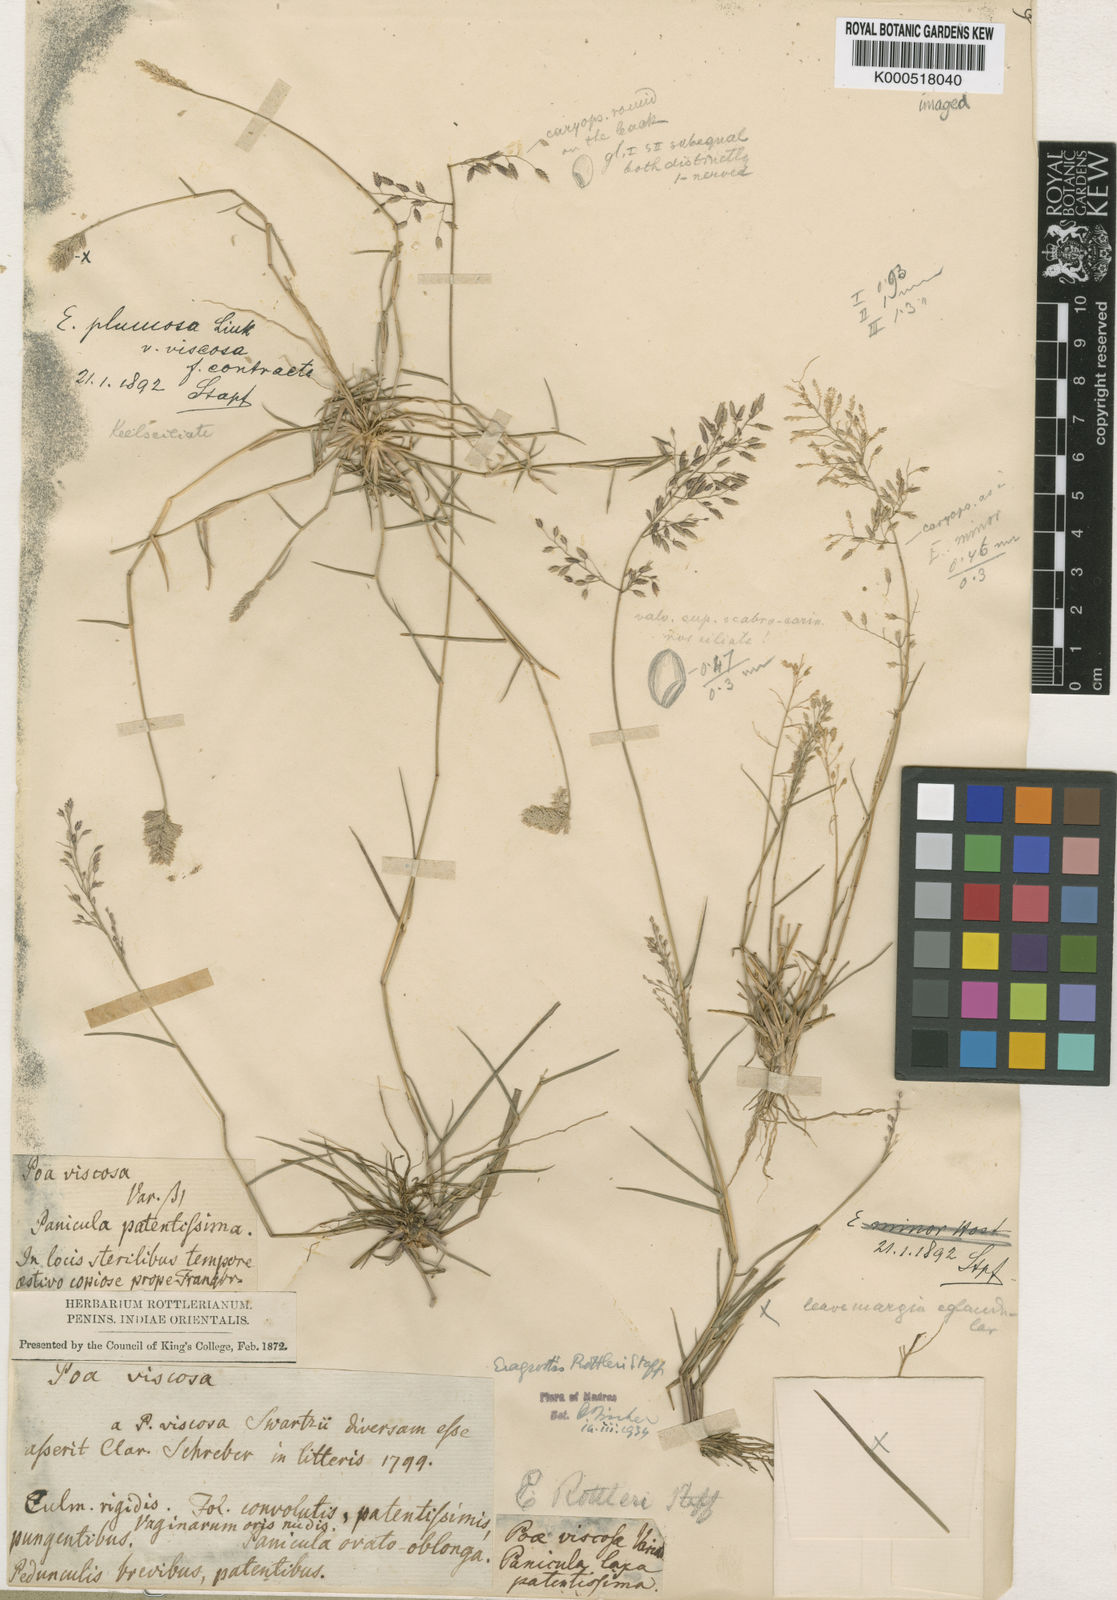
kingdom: Plantae
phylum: Tracheophyta
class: Liliopsida
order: Poales
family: Poaceae
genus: Eragrostis
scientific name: Eragrostis rottleri
